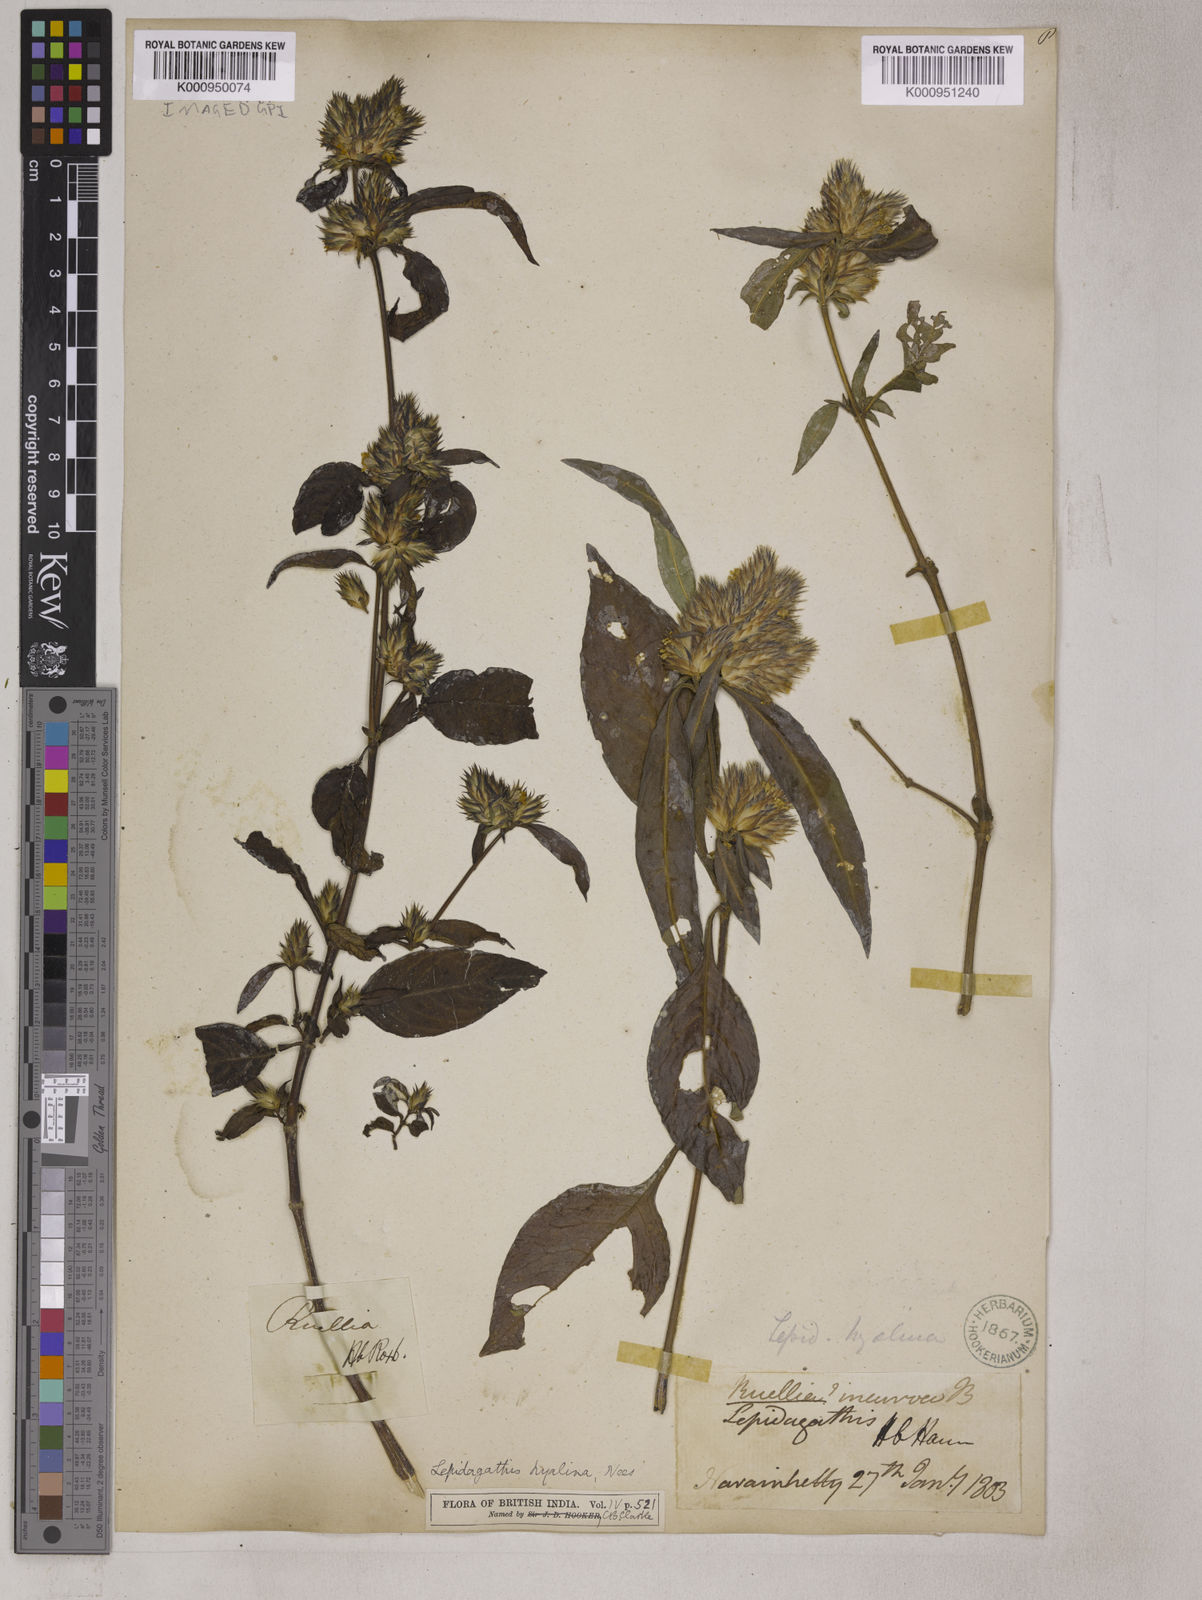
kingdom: Plantae
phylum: Tracheophyta
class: Magnoliopsida
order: Lamiales
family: Acanthaceae
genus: Lepidagathis
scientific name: Lepidagathis incurva
